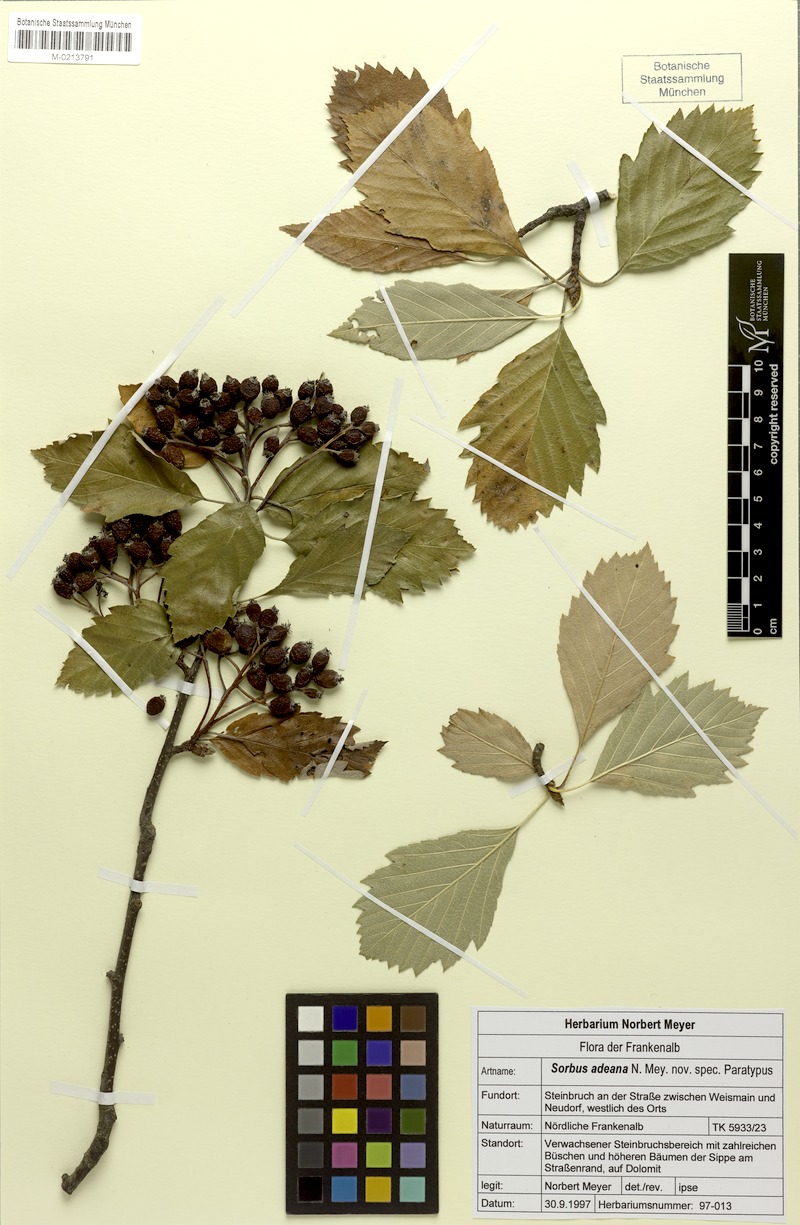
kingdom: Plantae
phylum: Tracheophyta
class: Magnoliopsida
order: Rosales
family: Rosaceae
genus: Karpatiosorbus
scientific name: Karpatiosorbus adeana
